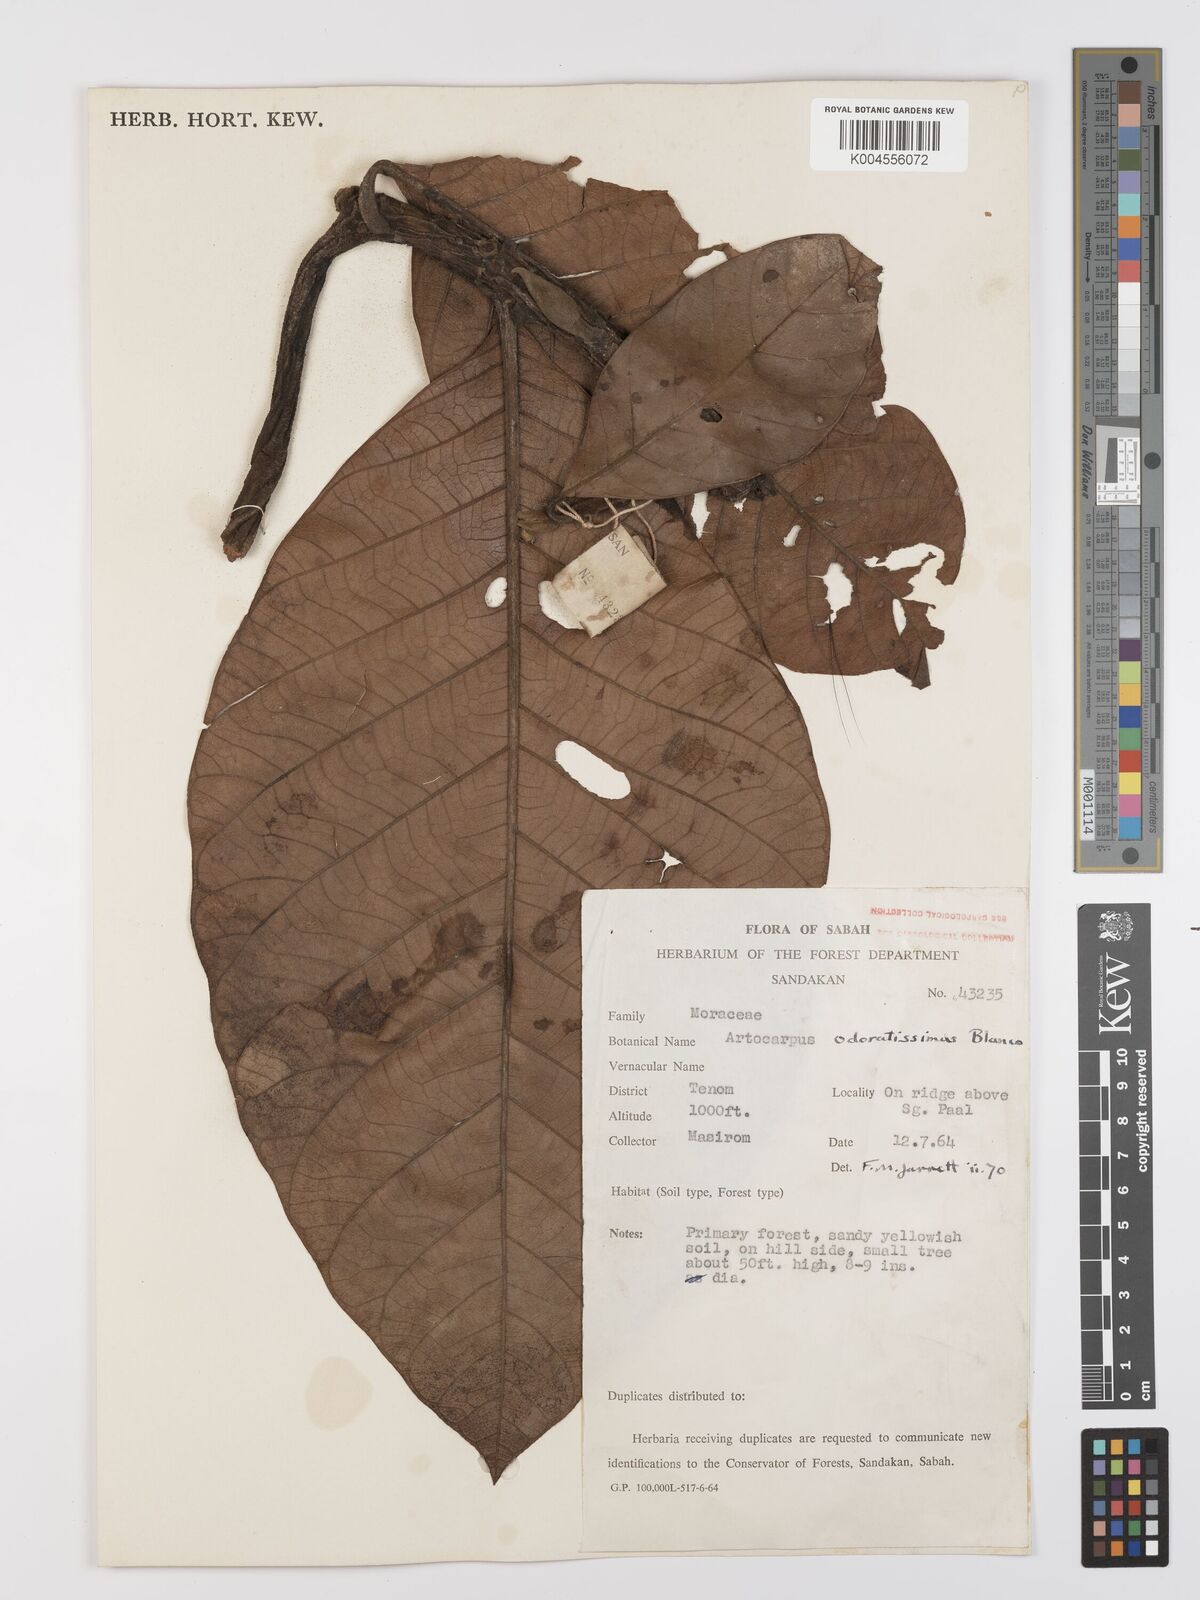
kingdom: Plantae
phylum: Tracheophyta
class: Magnoliopsida
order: Rosales
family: Moraceae
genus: Artocarpus
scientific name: Artocarpus odoratissimus
